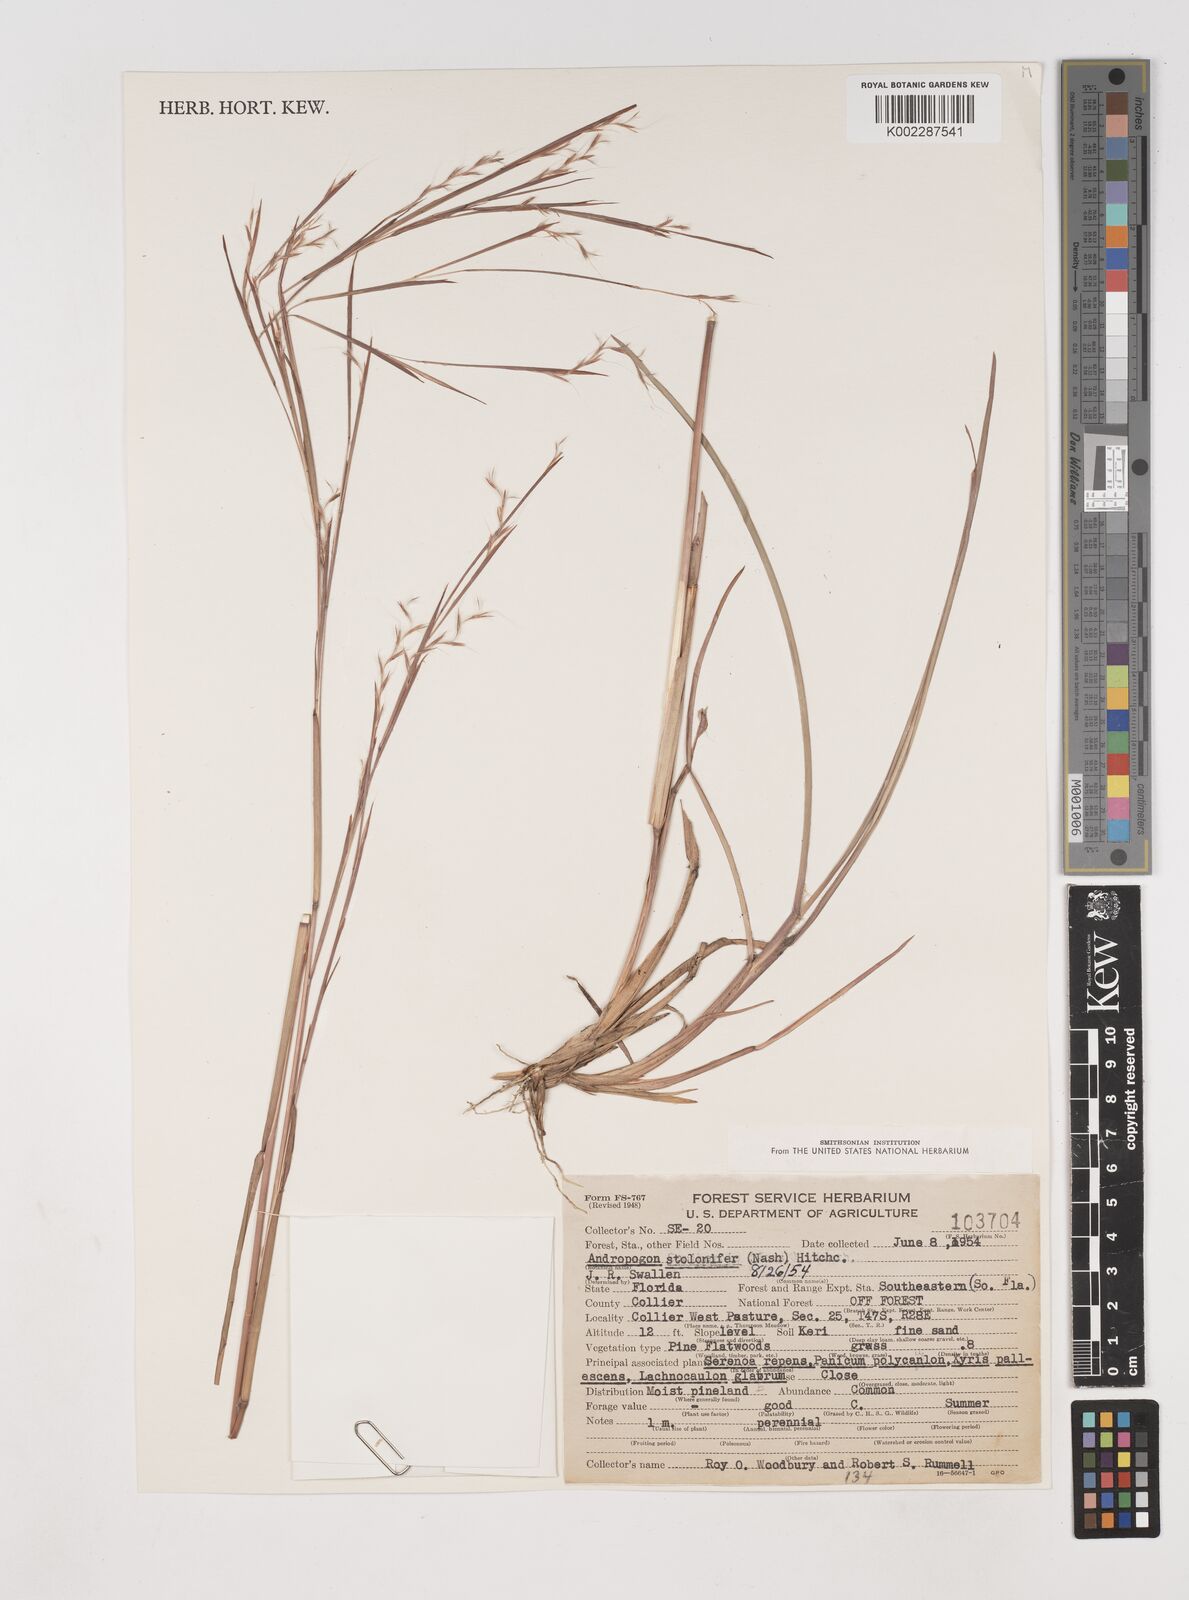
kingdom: Plantae
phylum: Tracheophyta
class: Liliopsida
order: Poales
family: Poaceae
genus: Andropogon
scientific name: Andropogon stolonifer
